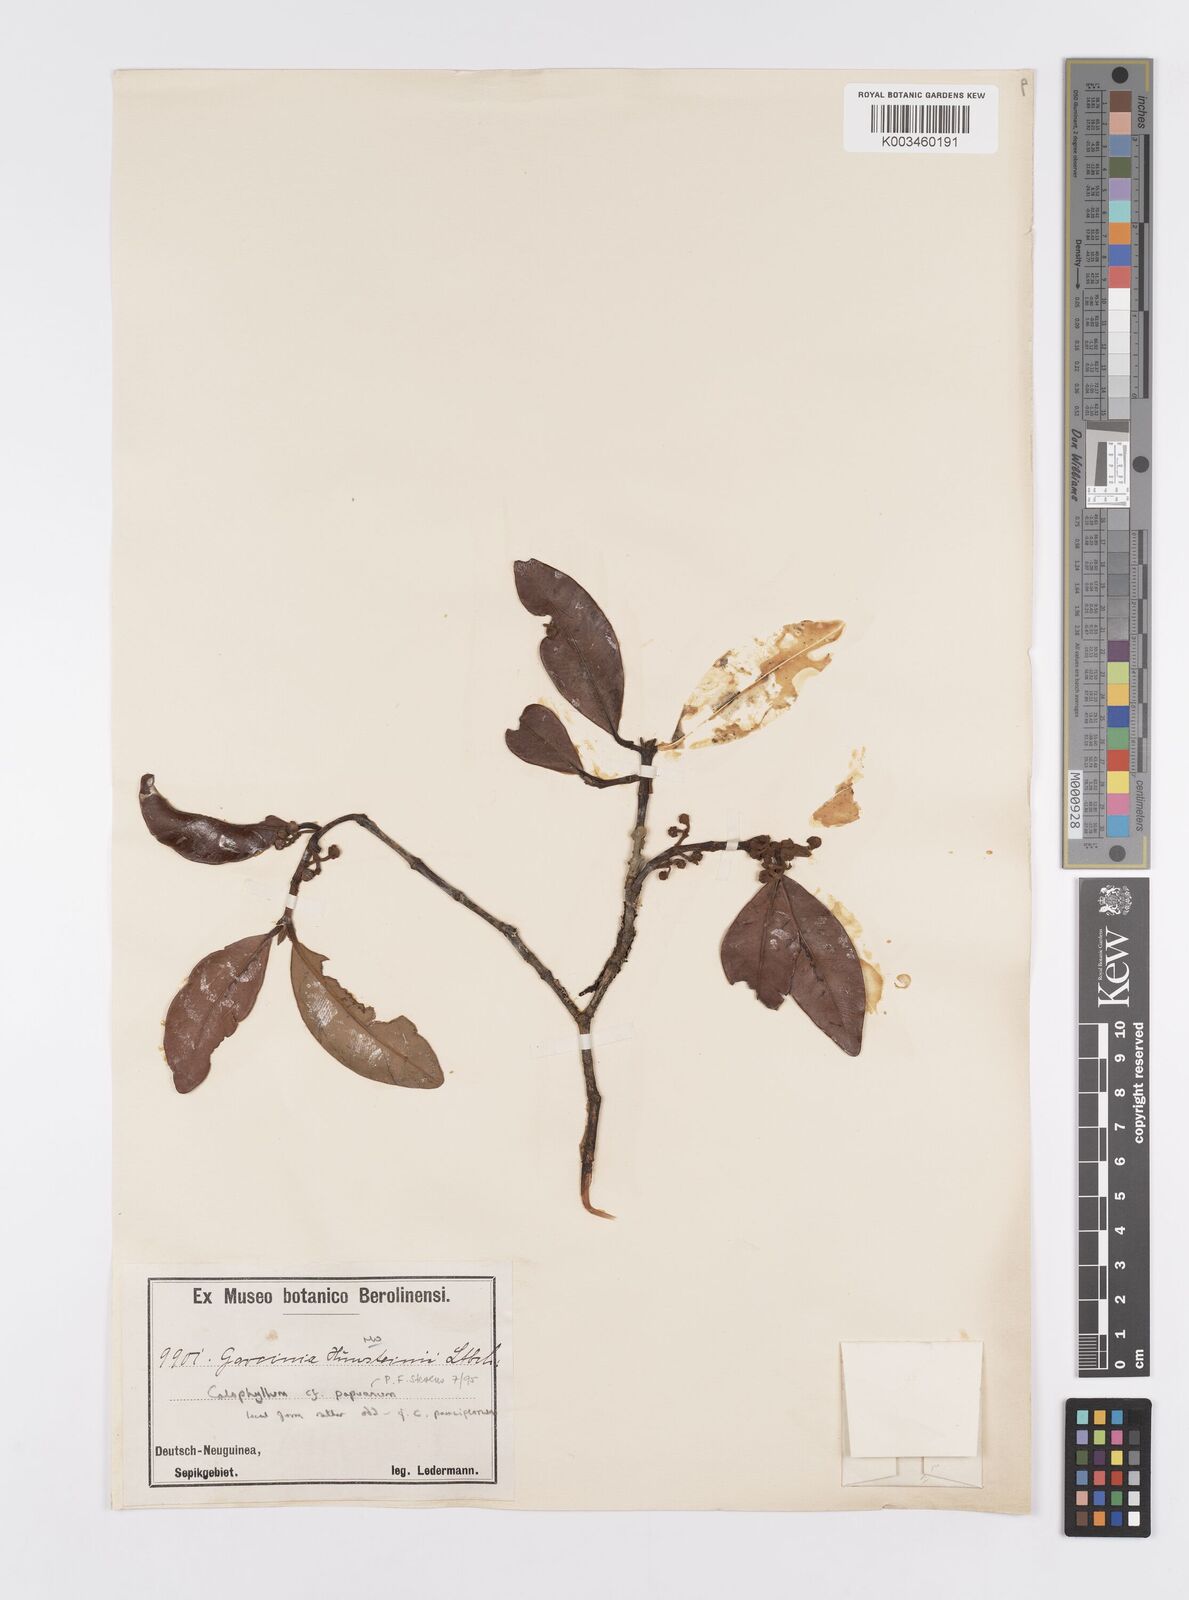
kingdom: Plantae
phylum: Tracheophyta
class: Magnoliopsida
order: Malpighiales
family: Calophyllaceae
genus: Calophyllum
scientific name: Calophyllum papuanum
